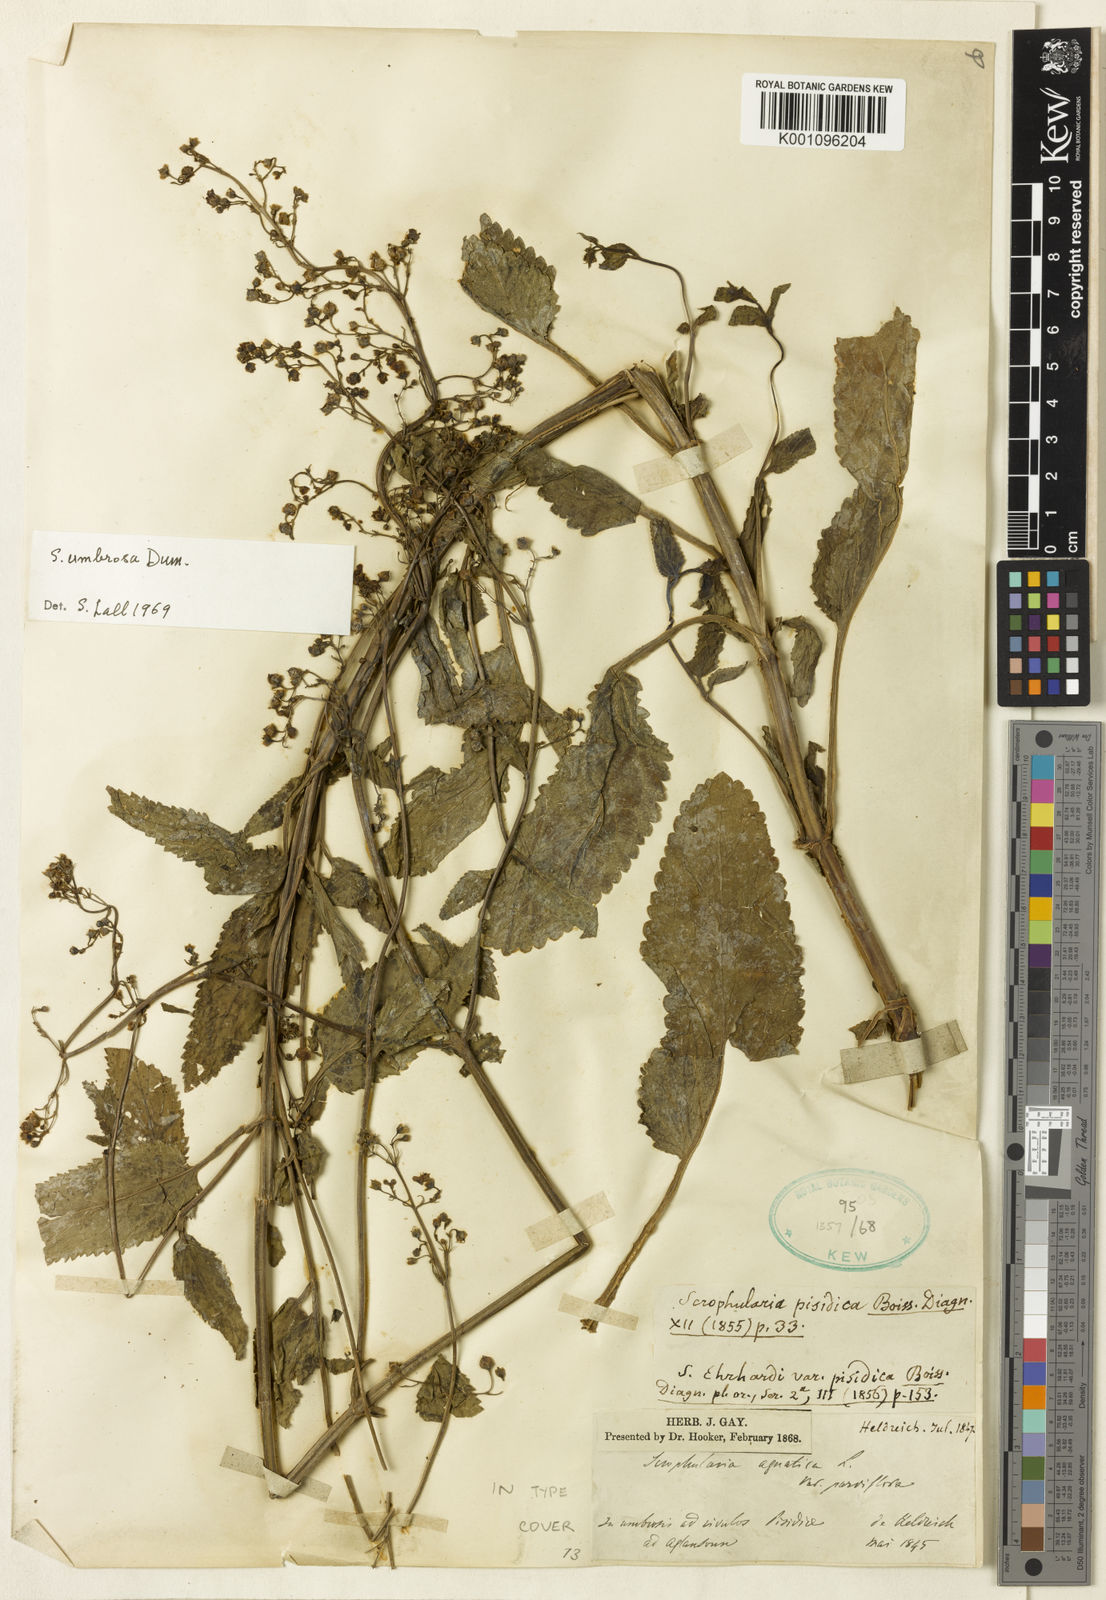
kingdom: Plantae
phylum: Tracheophyta
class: Magnoliopsida
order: Lamiales
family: Scrophulariaceae
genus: Scrophularia
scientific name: Scrophularia alata
